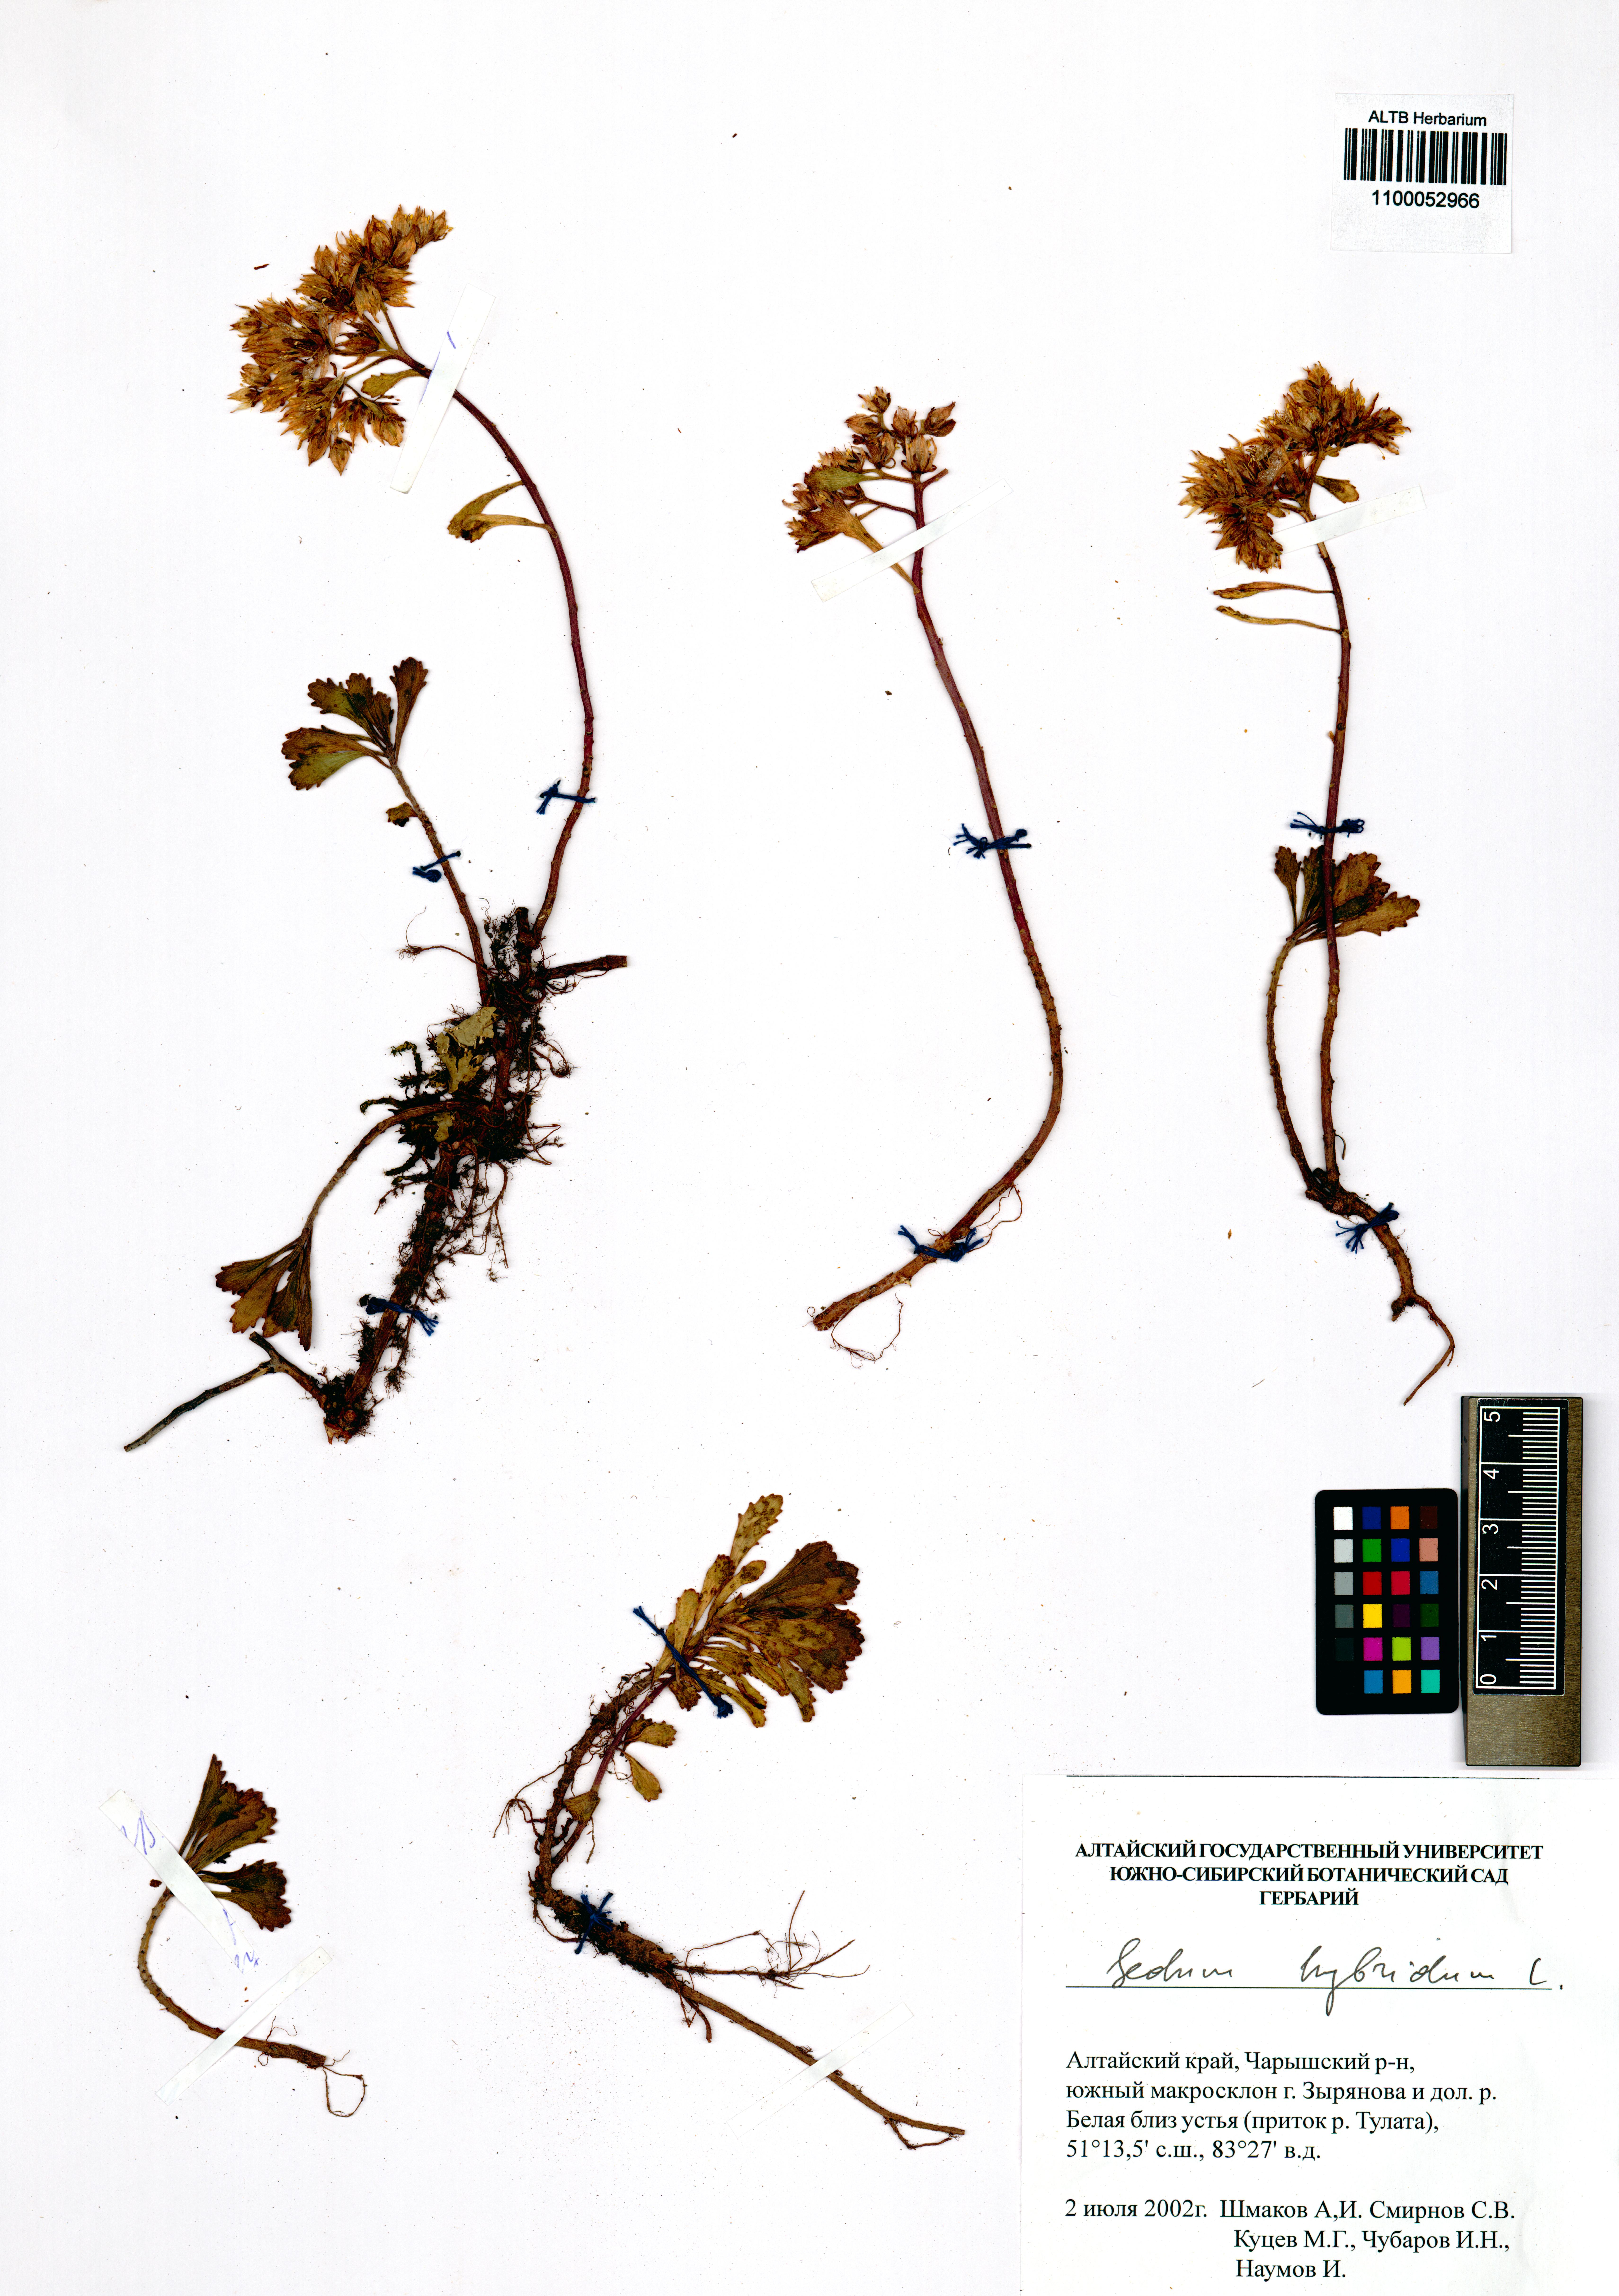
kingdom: Plantae
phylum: Tracheophyta
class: Magnoliopsida
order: Saxifragales
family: Crassulaceae
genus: Phedimus
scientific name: Phedimus hybridus
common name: Hybrid stonecrop
